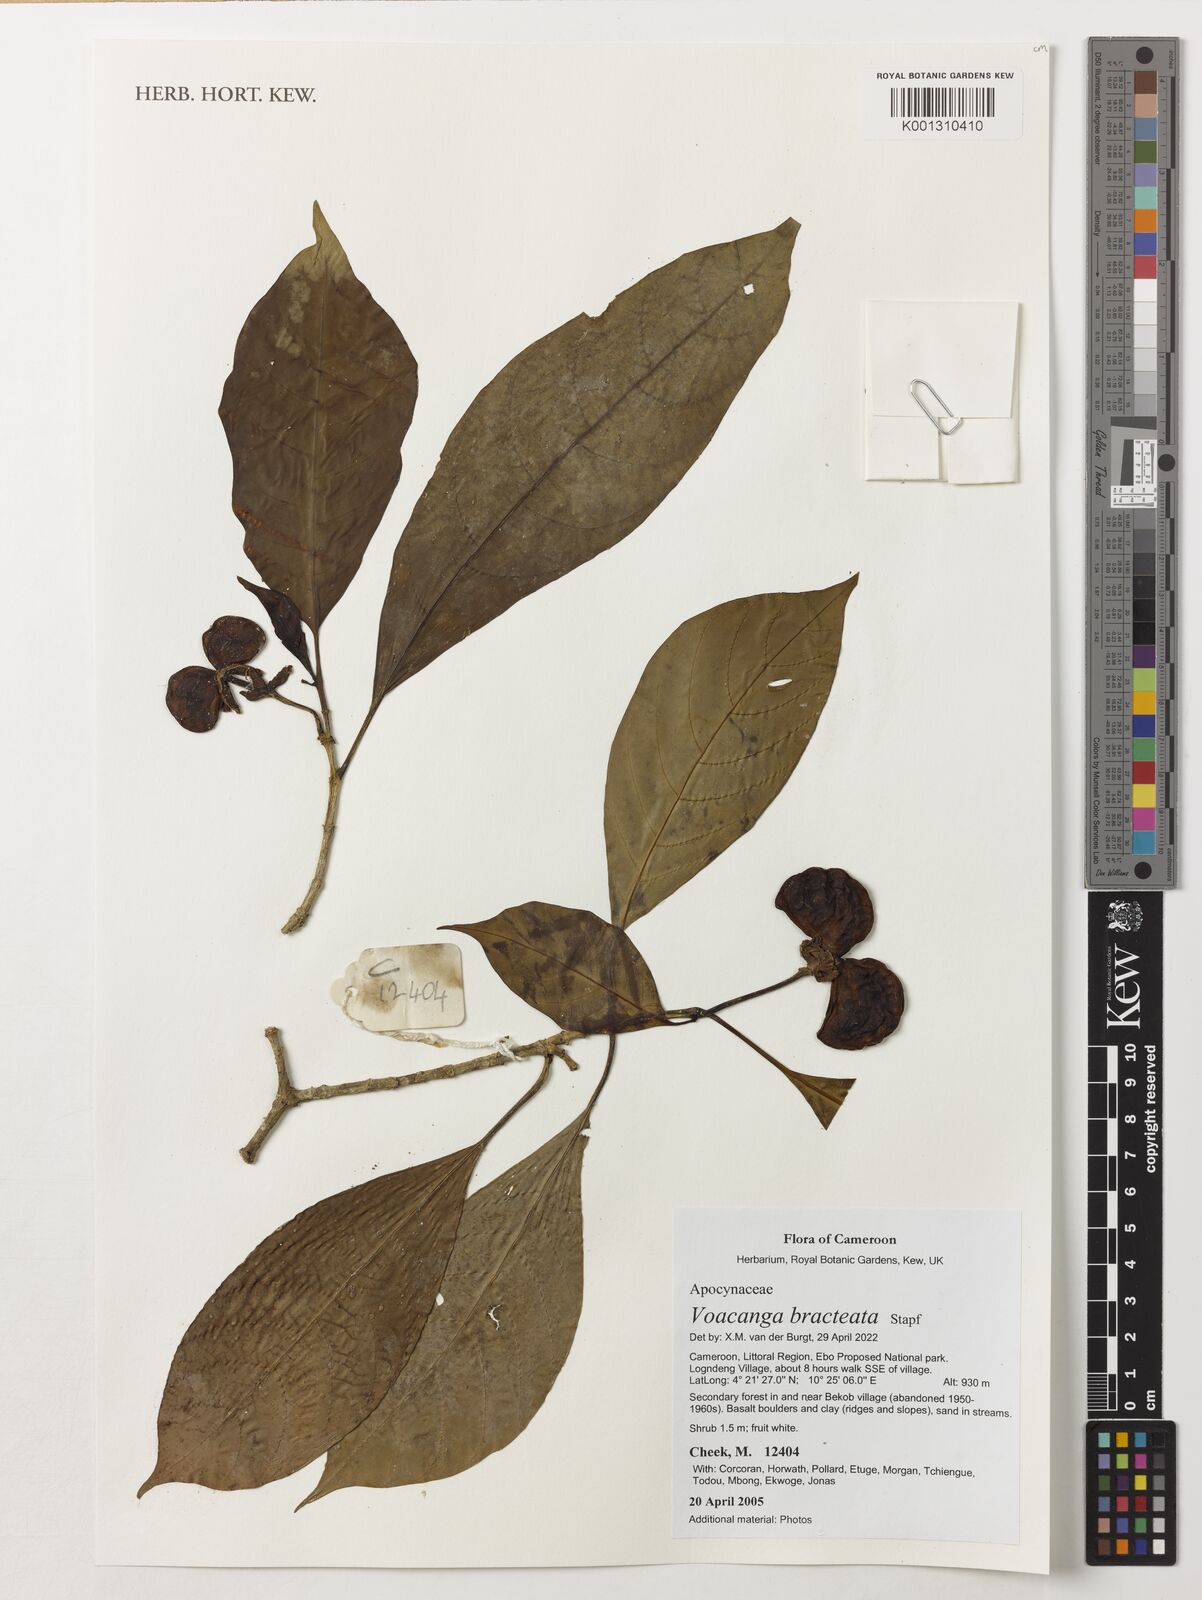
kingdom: Plantae
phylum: Tracheophyta
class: Magnoliopsida
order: Gentianales
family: Apocynaceae
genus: Voacanga
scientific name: Voacanga bracteata
